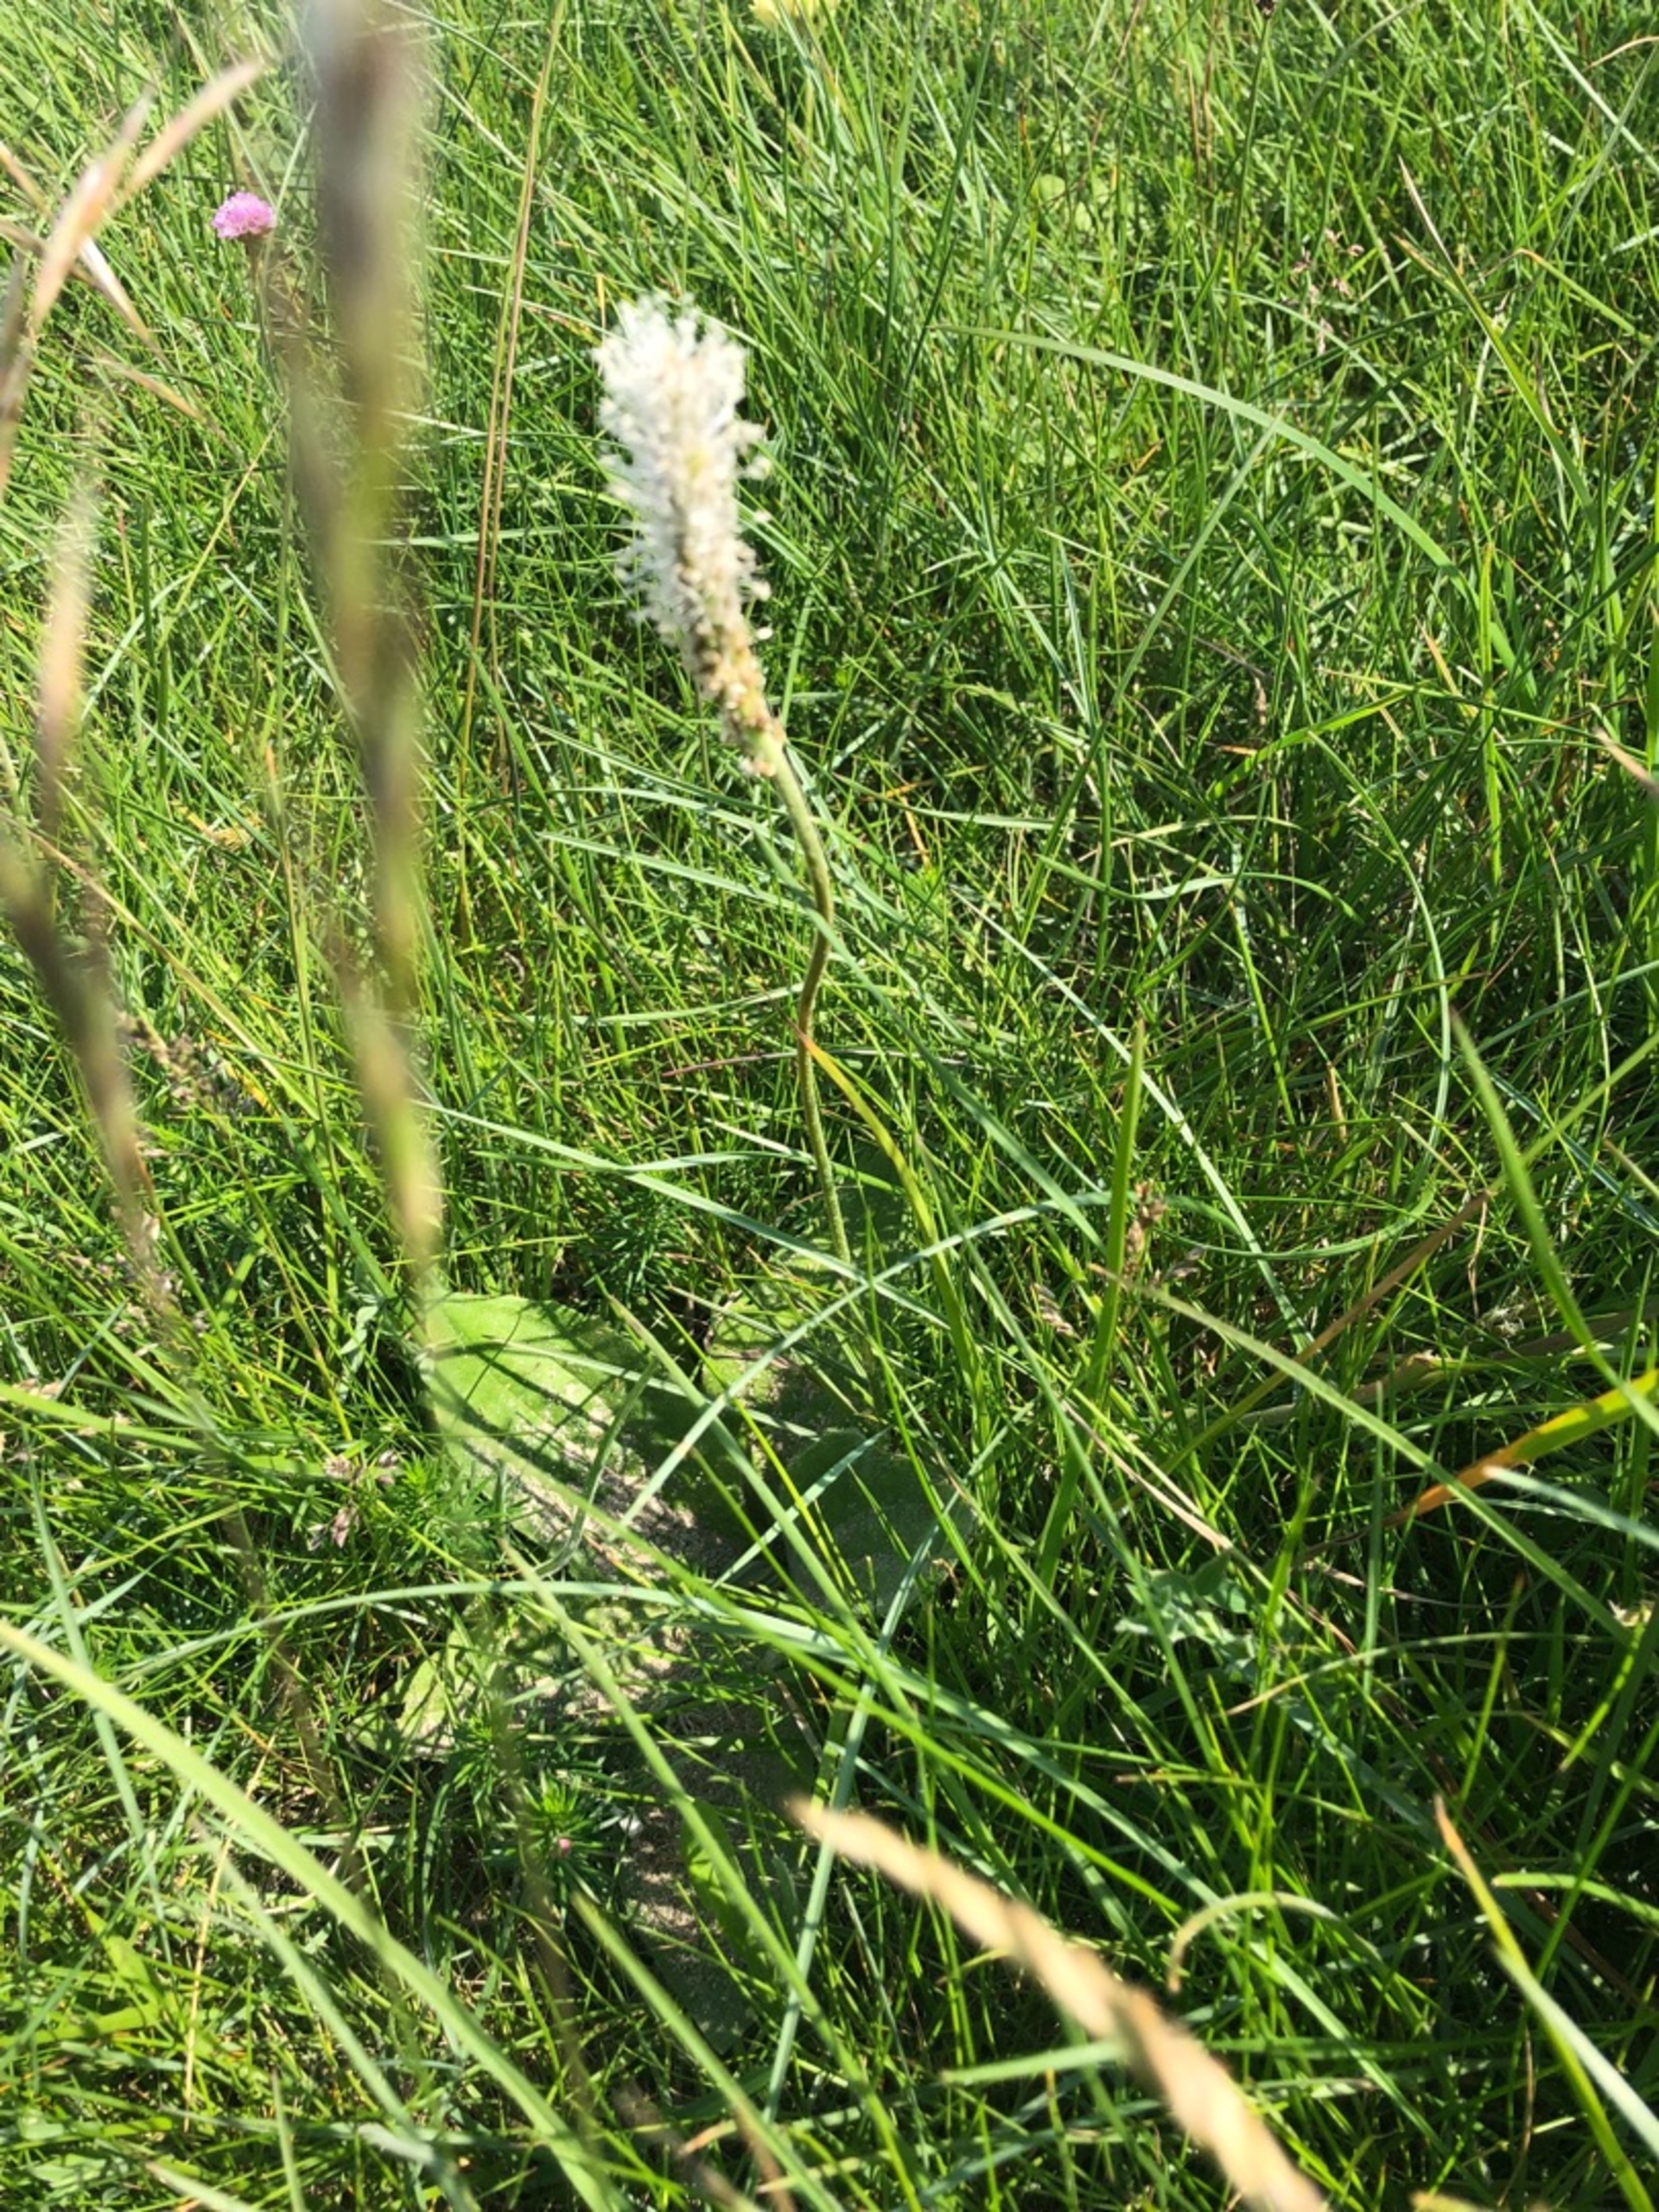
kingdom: Plantae
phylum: Tracheophyta
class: Magnoliopsida
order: Lamiales
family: Plantaginaceae
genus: Plantago
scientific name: Plantago media
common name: Dunet vejbred
